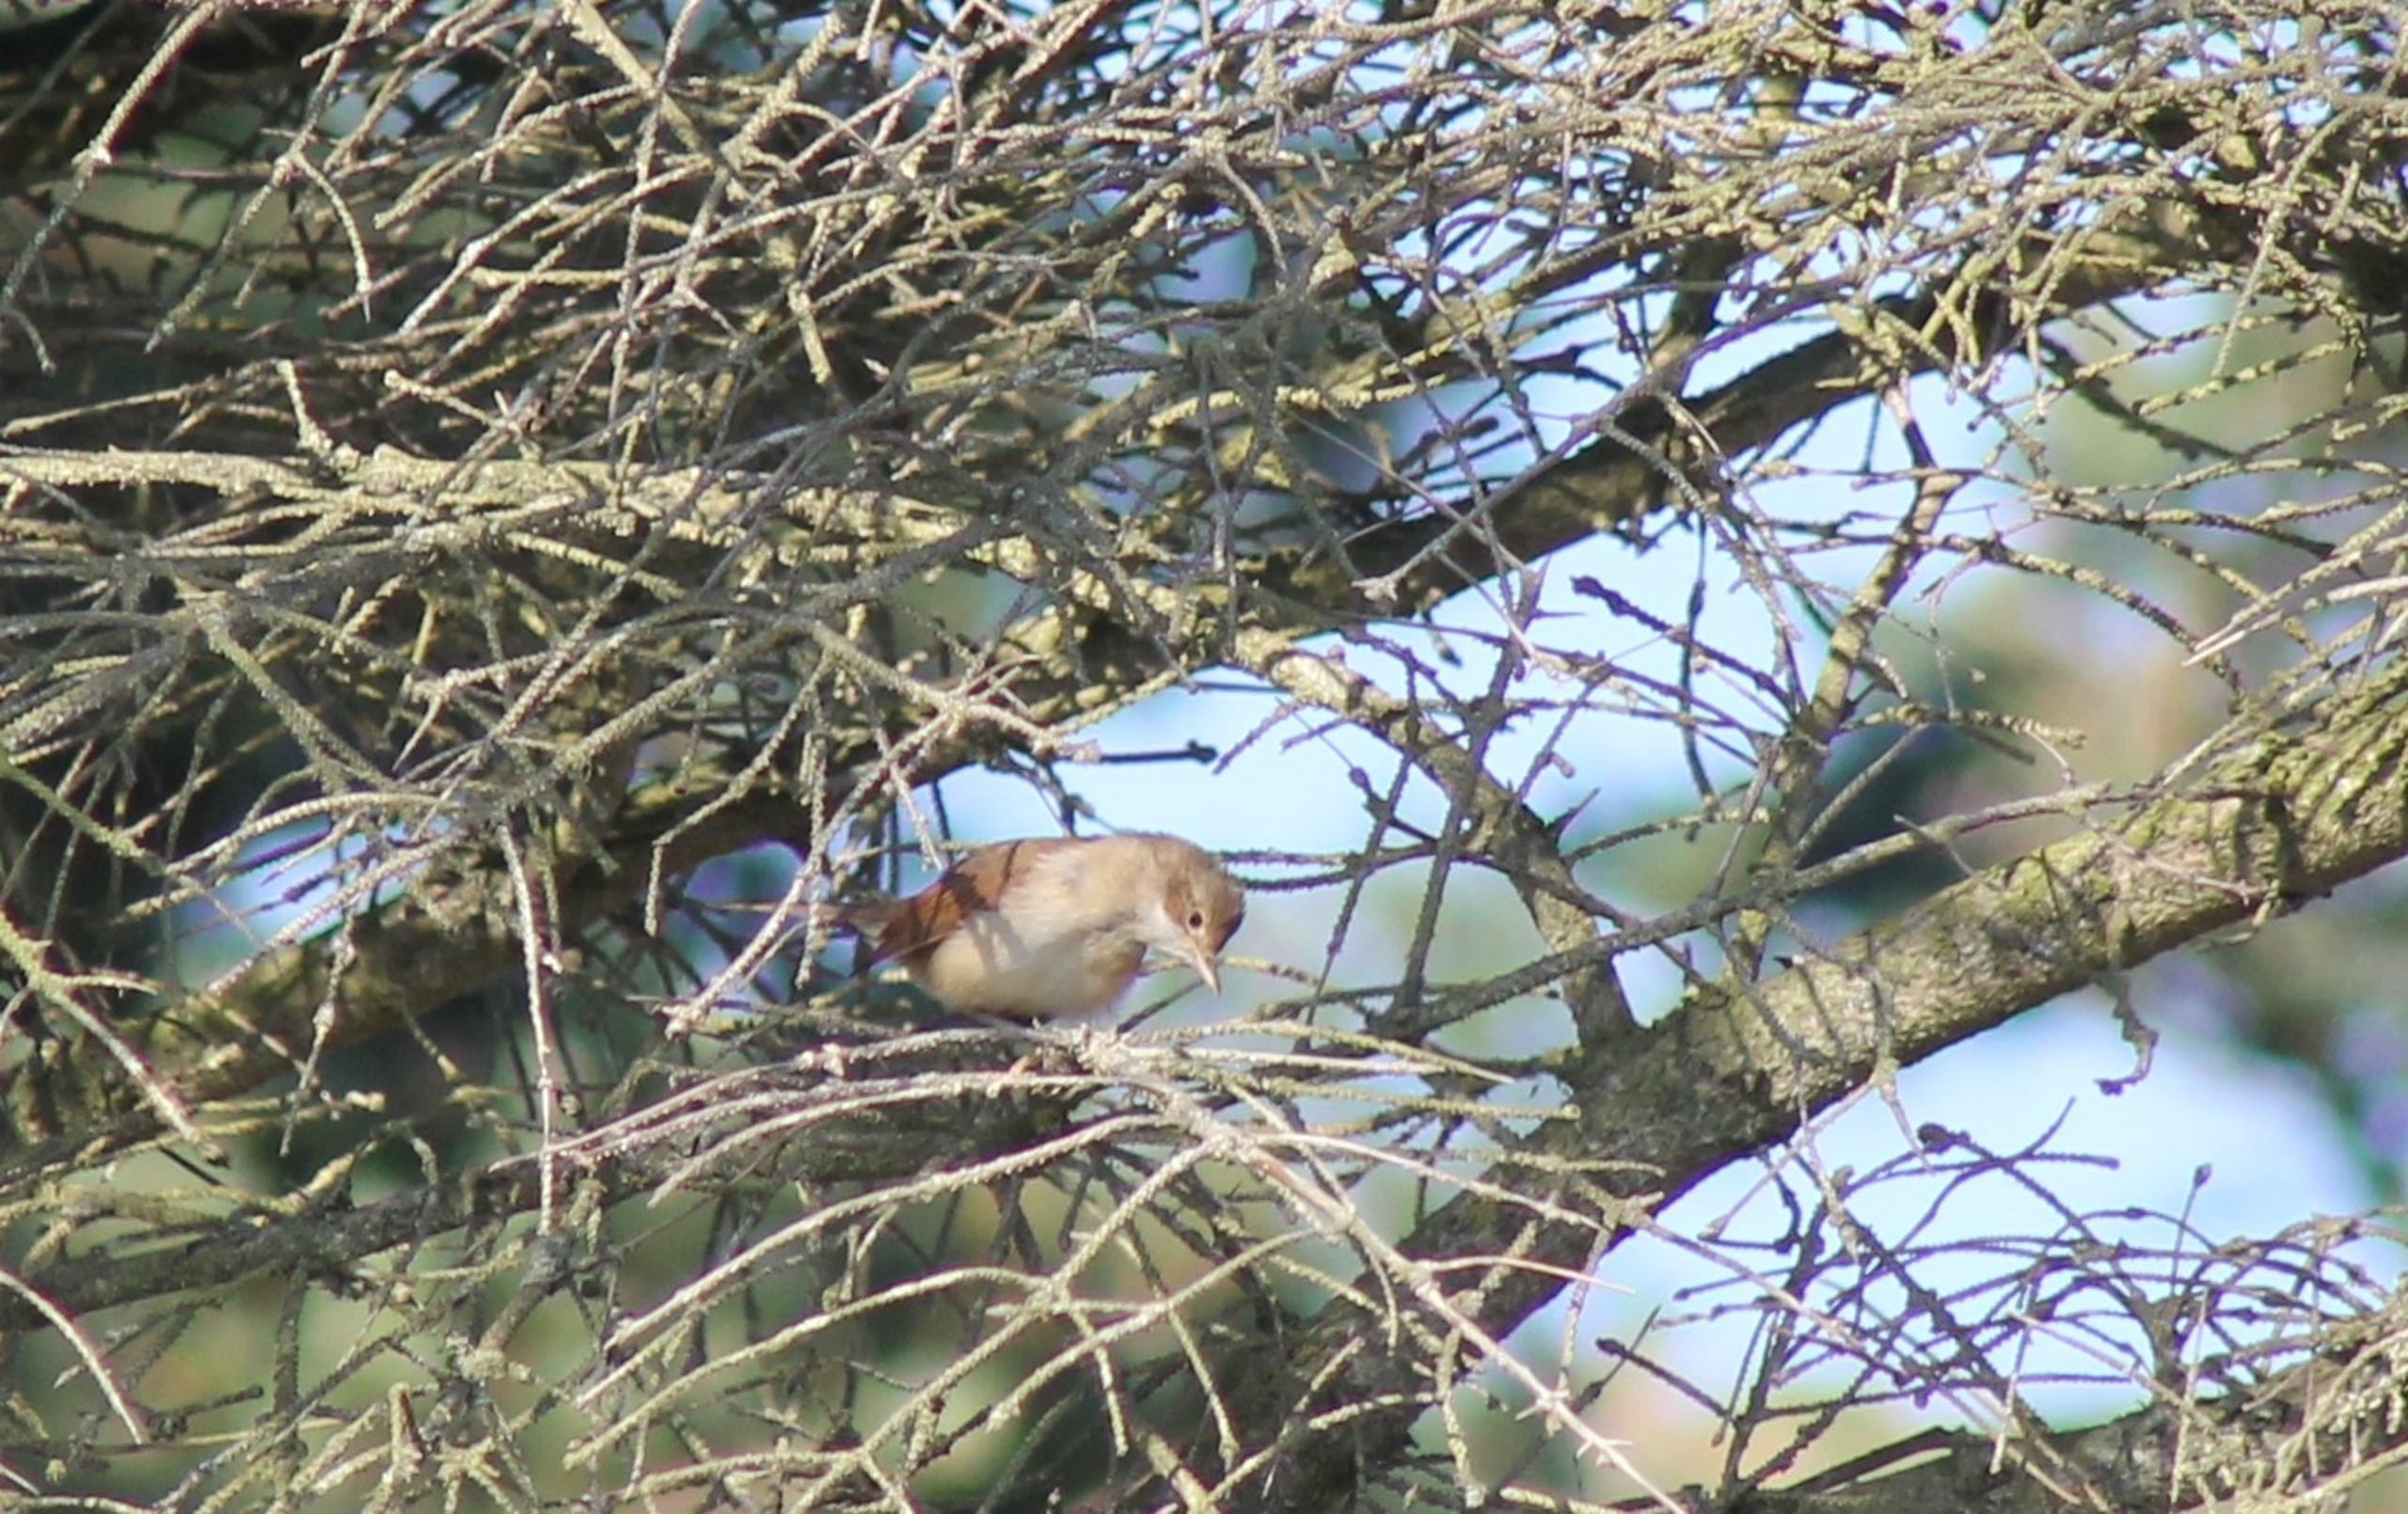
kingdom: Animalia
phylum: Chordata
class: Aves
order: Passeriformes
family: Sylviidae
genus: Sylvia
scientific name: Sylvia communis
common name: Tornsanger
